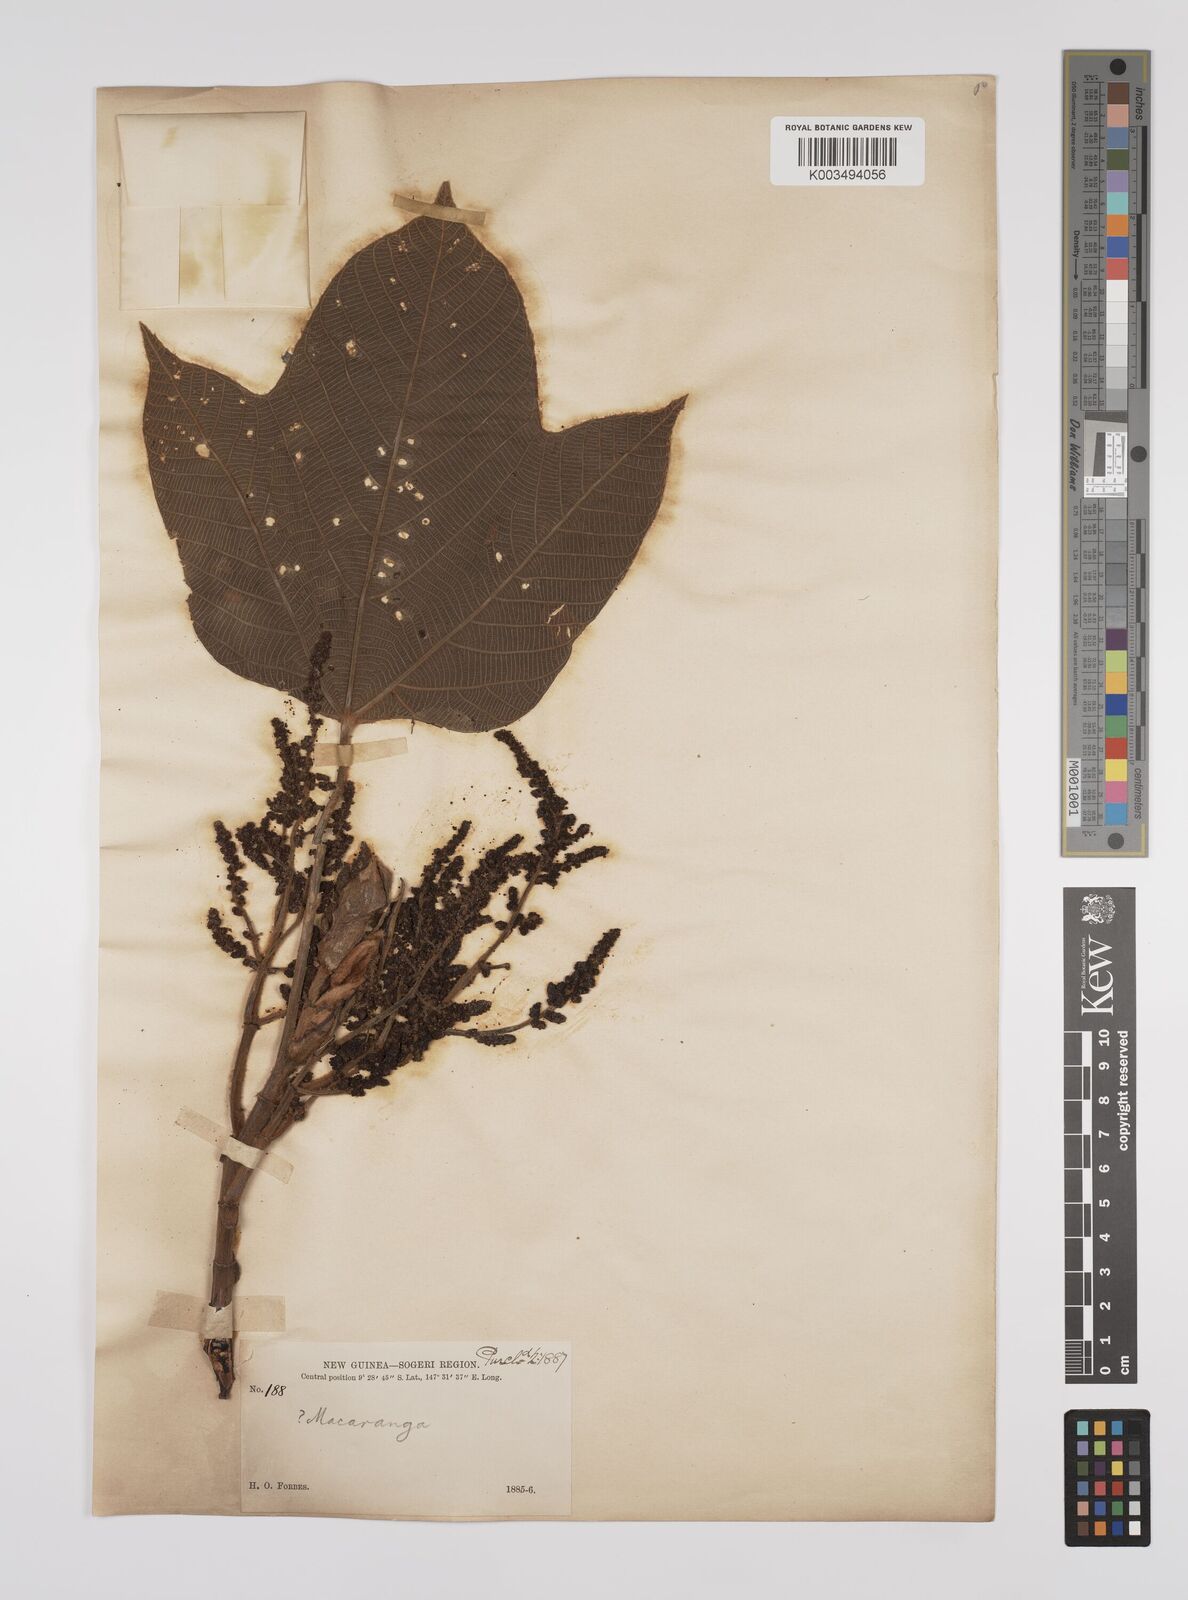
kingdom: Plantae
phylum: Tracheophyta
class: Magnoliopsida
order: Malpighiales
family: Euphorbiaceae
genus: Macaranga
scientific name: Macaranga aleuritoides
